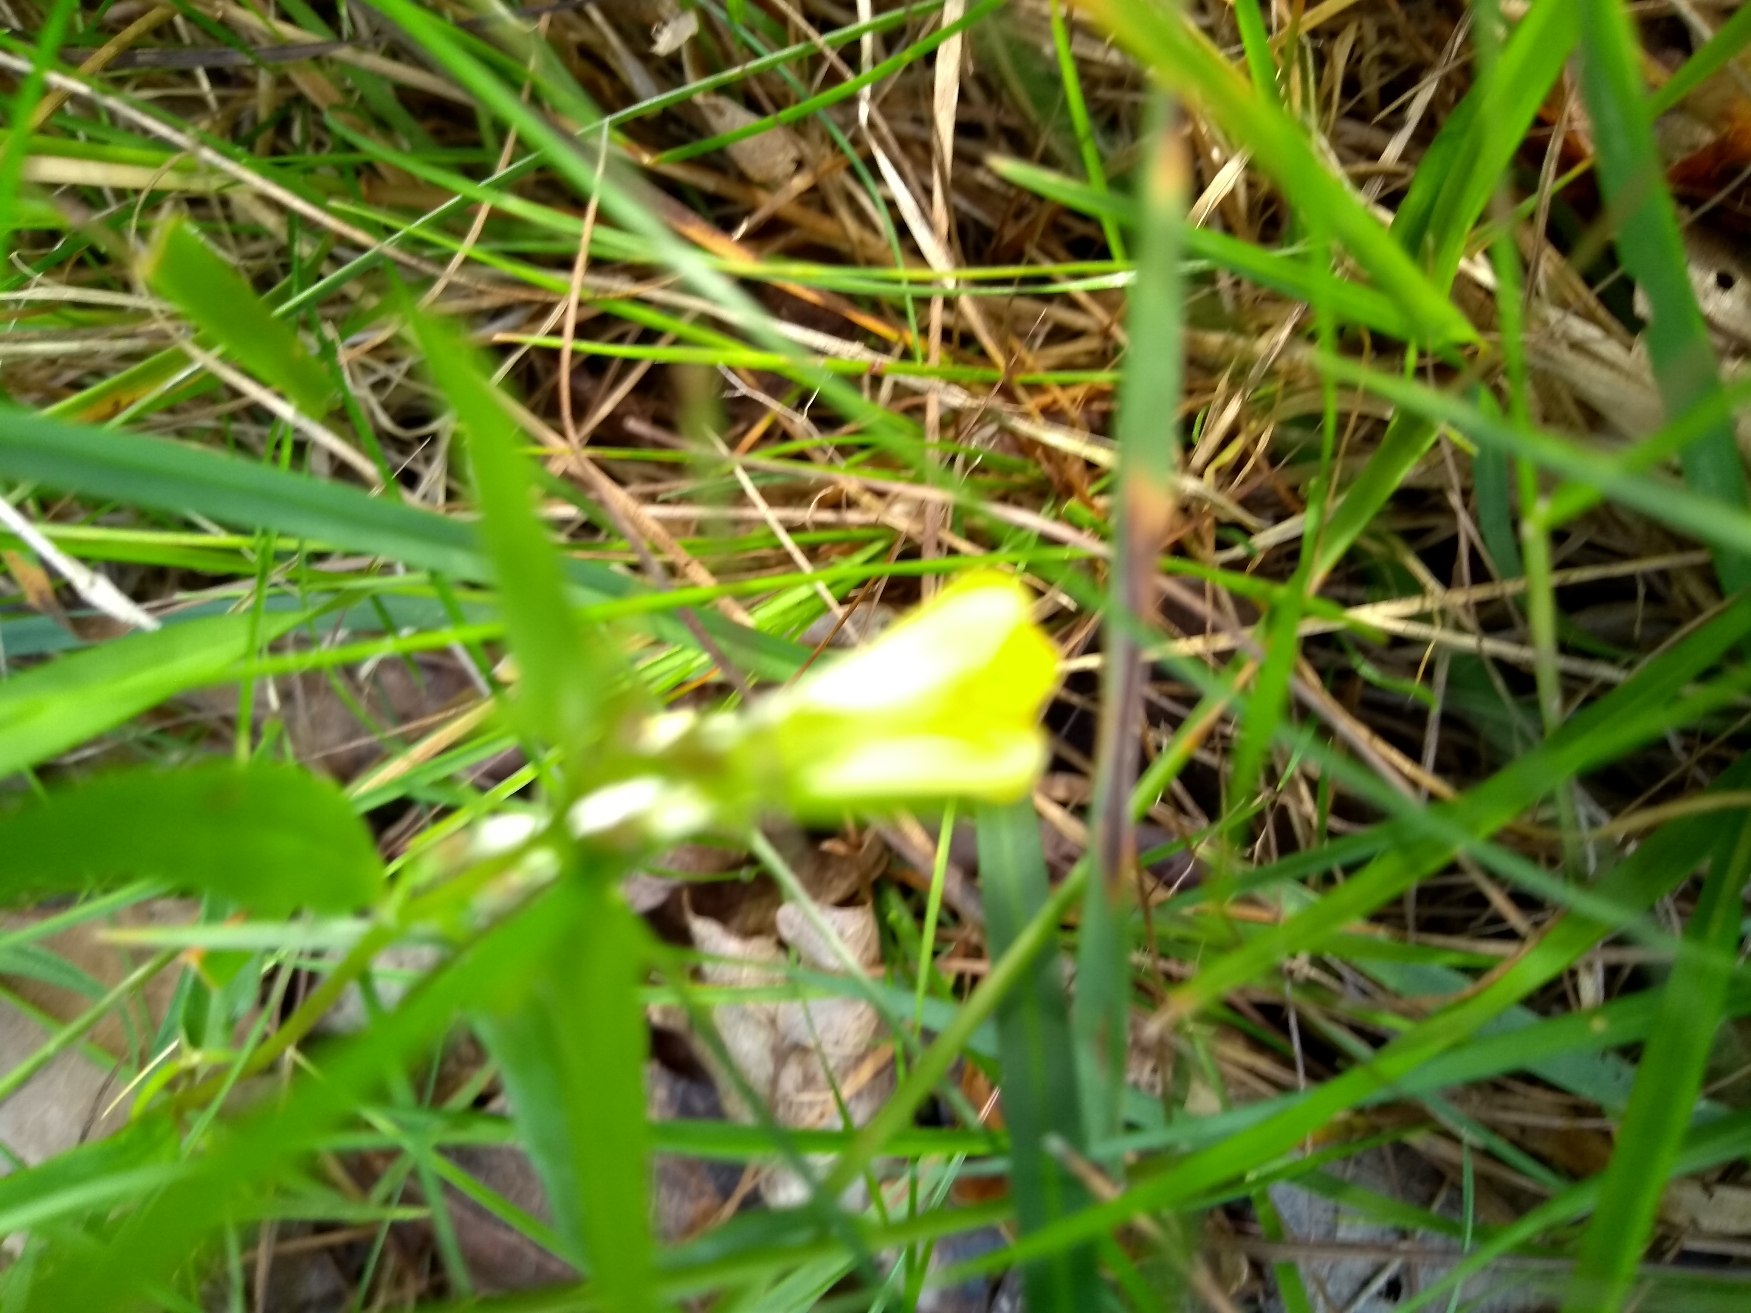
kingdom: Plantae
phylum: Tracheophyta
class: Magnoliopsida
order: Lamiales
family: Orobanchaceae
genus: Melampyrum
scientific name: Melampyrum pratense
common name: Almindelig kohvede
